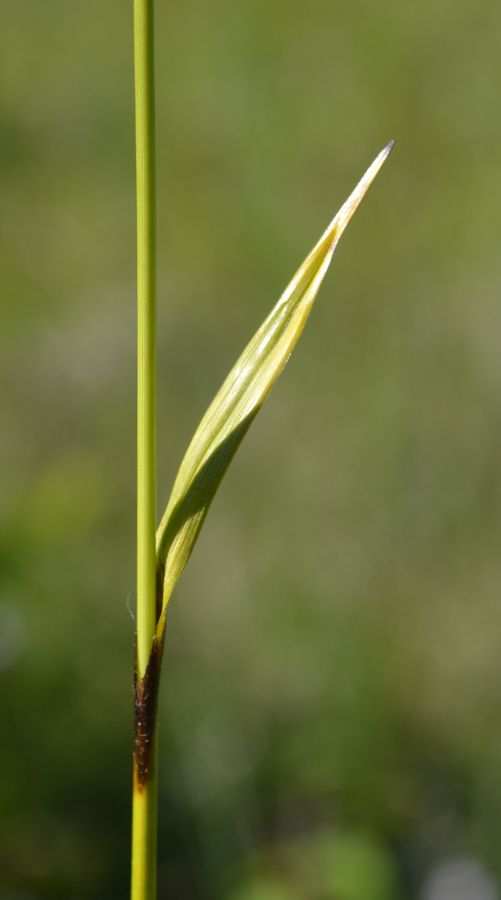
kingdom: Plantae
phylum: Tracheophyta
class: Liliopsida
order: Poales
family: Cyperaceae
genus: Eriophorum
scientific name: Eriophorum latifolium
